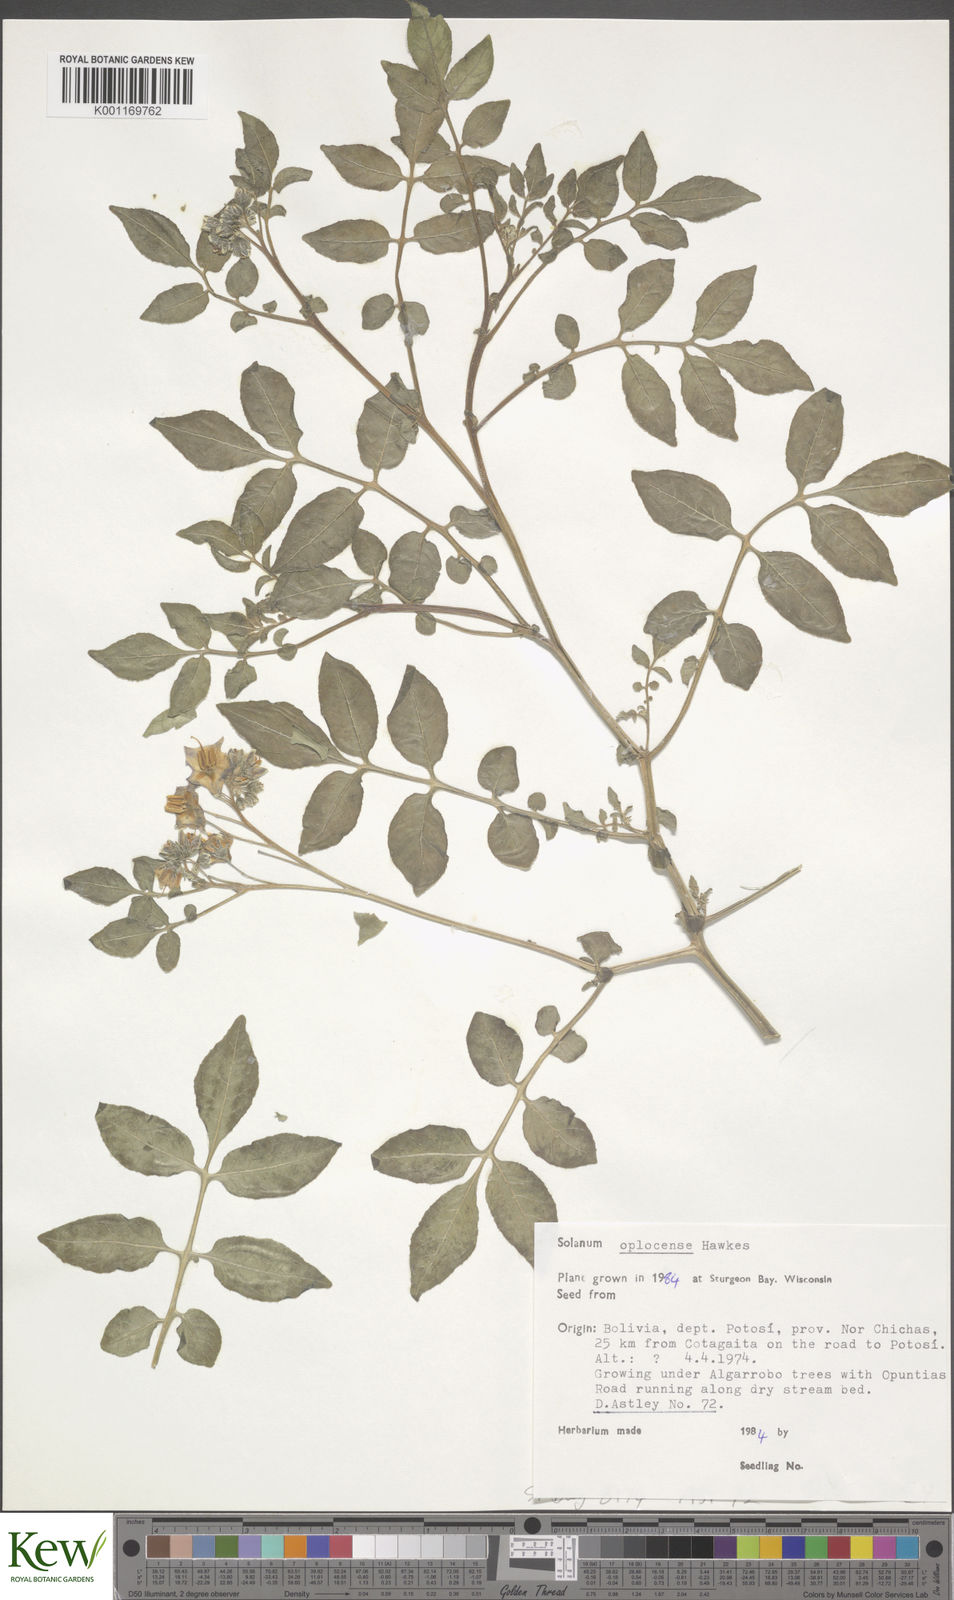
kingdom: Plantae
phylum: Tracheophyta
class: Magnoliopsida
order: Solanales
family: Solanaceae
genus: Solanum
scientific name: Solanum brevicaule
